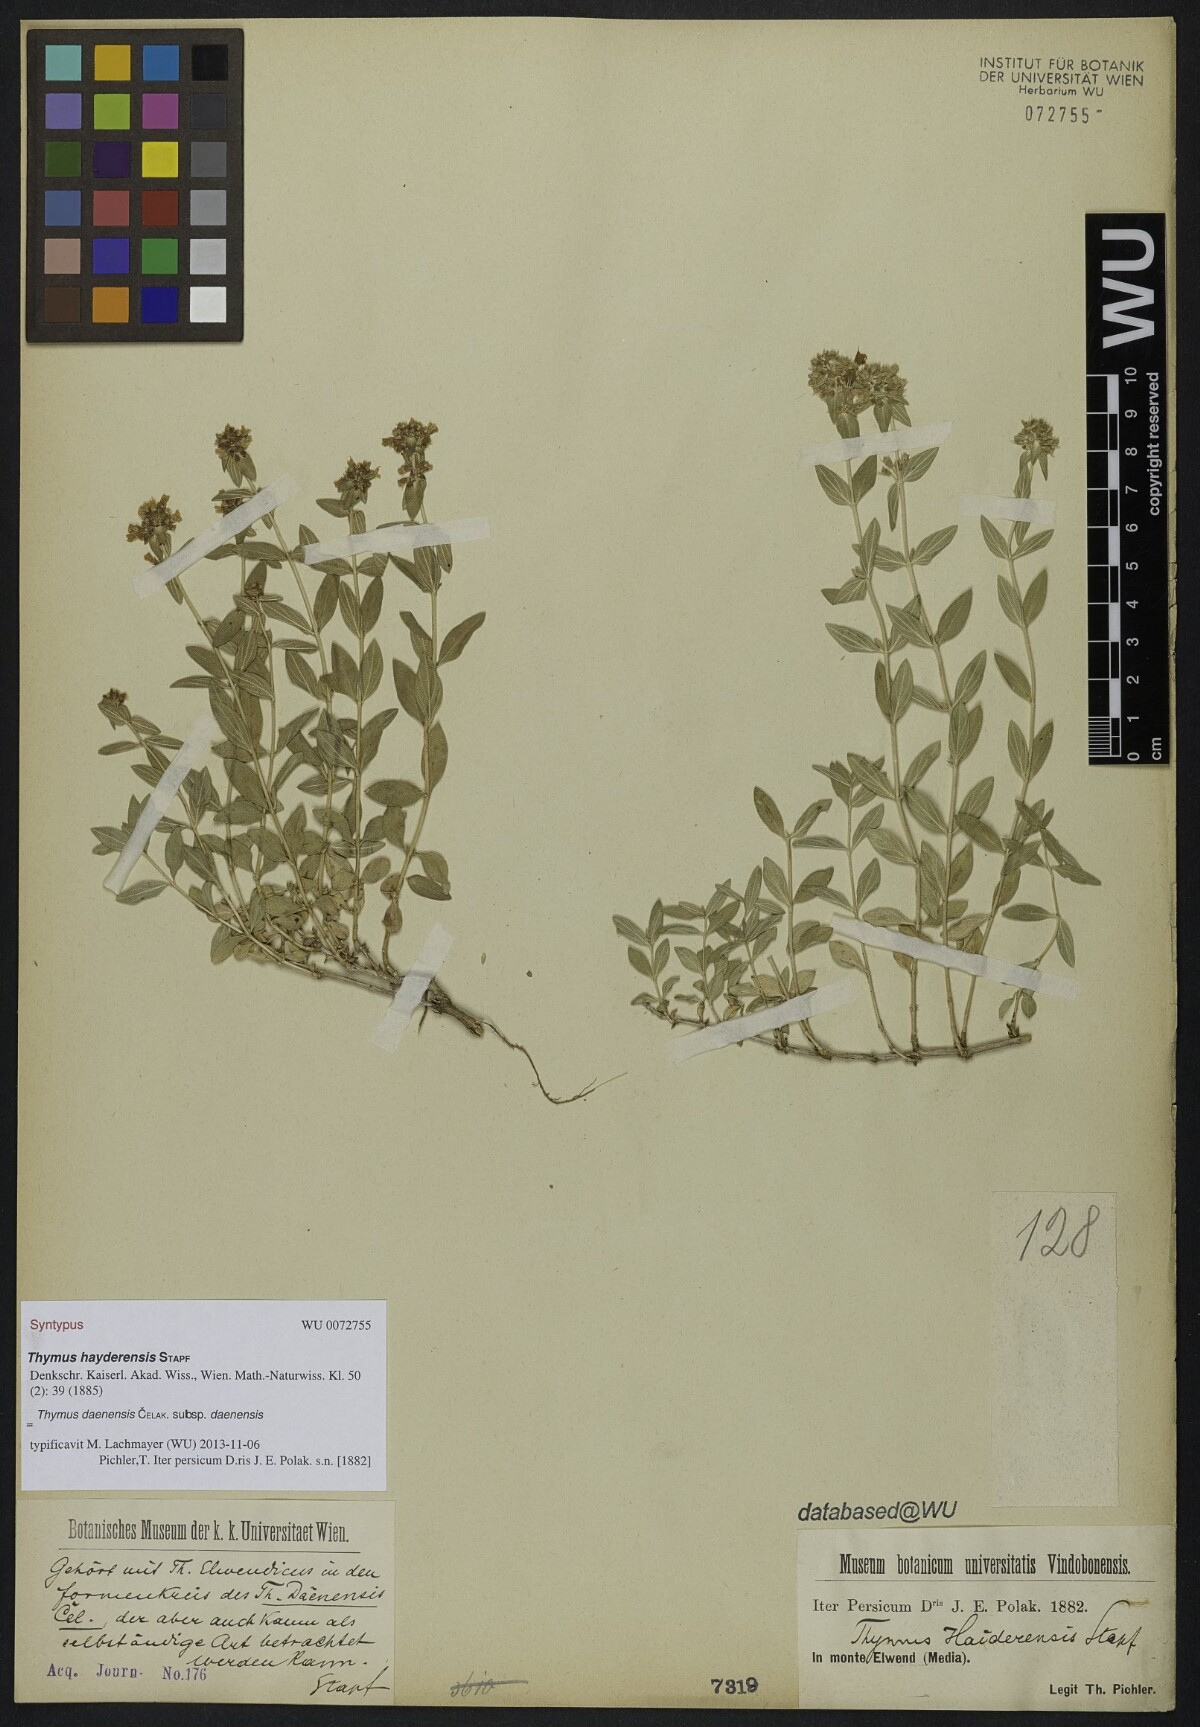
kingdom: Plantae
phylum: Tracheophyta
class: Magnoliopsida
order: Lamiales
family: Lamiaceae
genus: Thymus
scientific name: Thymus daenensis
